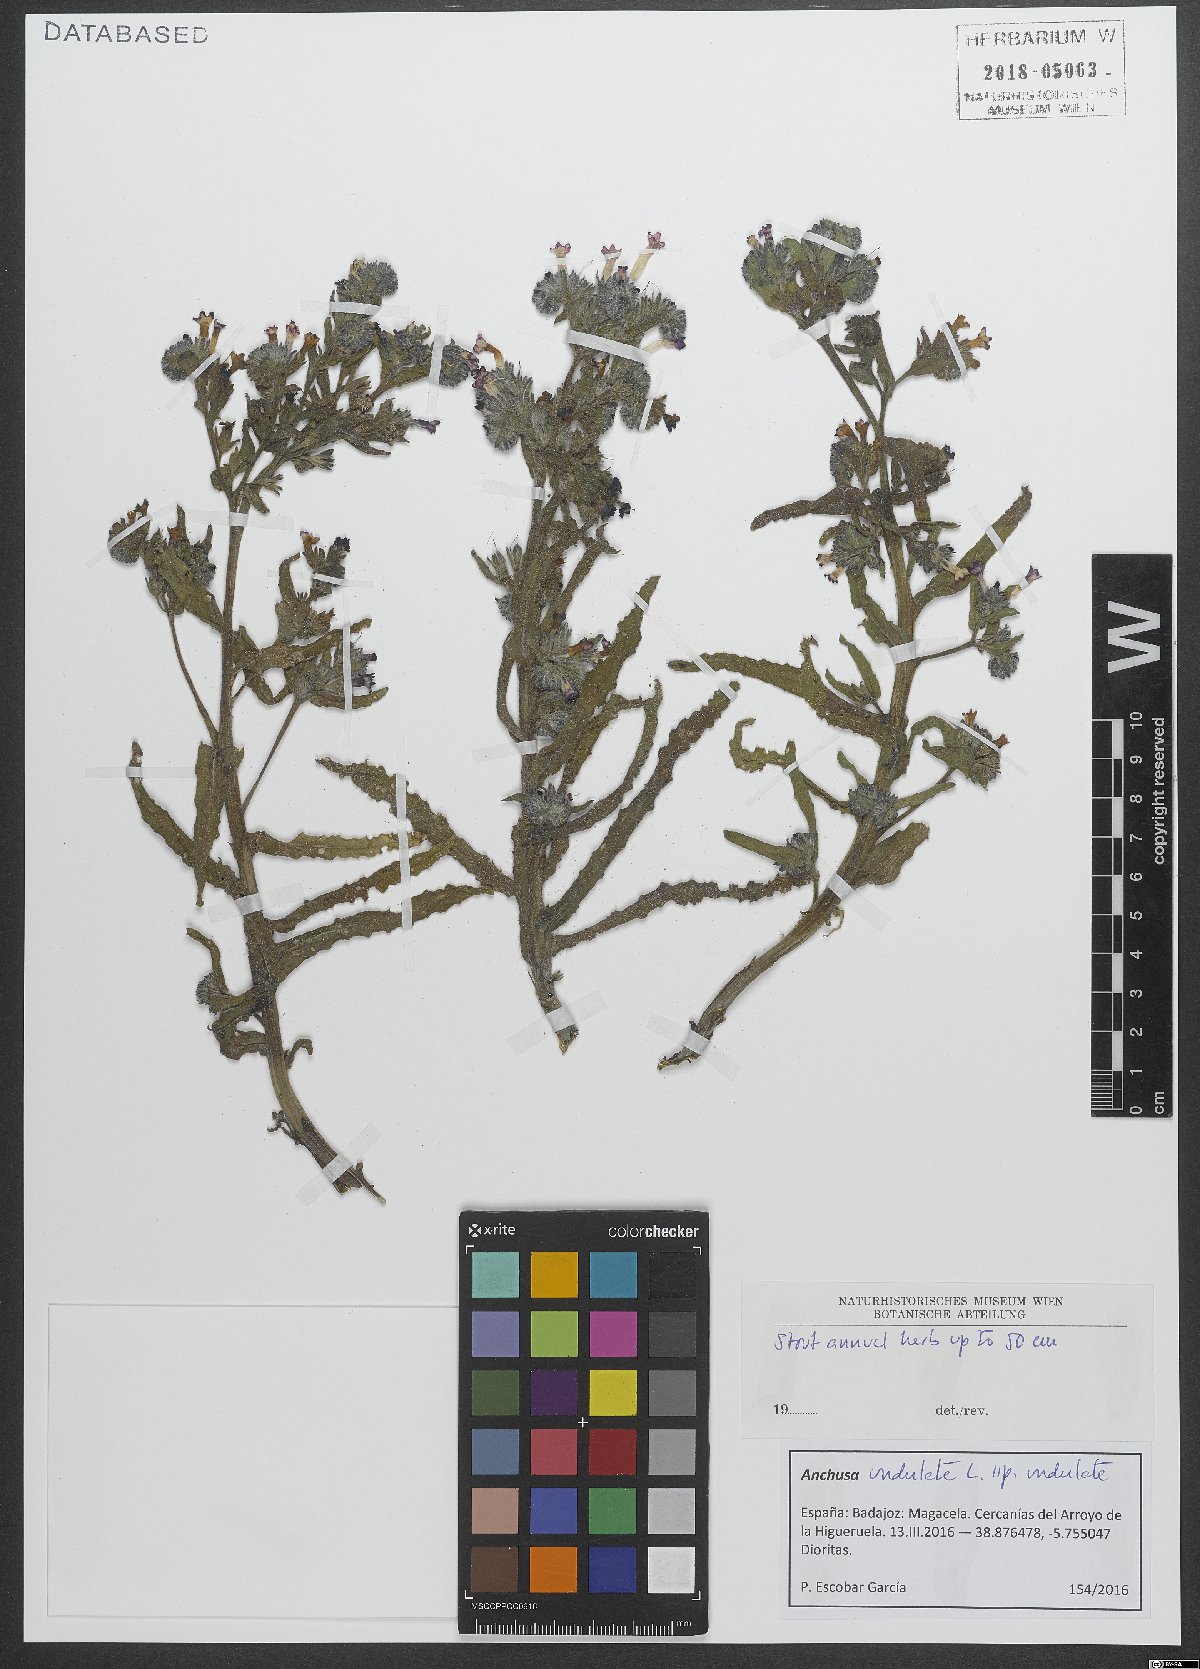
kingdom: Plantae
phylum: Tracheophyta
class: Magnoliopsida
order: Boraginales
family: Boraginaceae
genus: Anchusa
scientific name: Anchusa undulata
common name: Undulate alkanet
